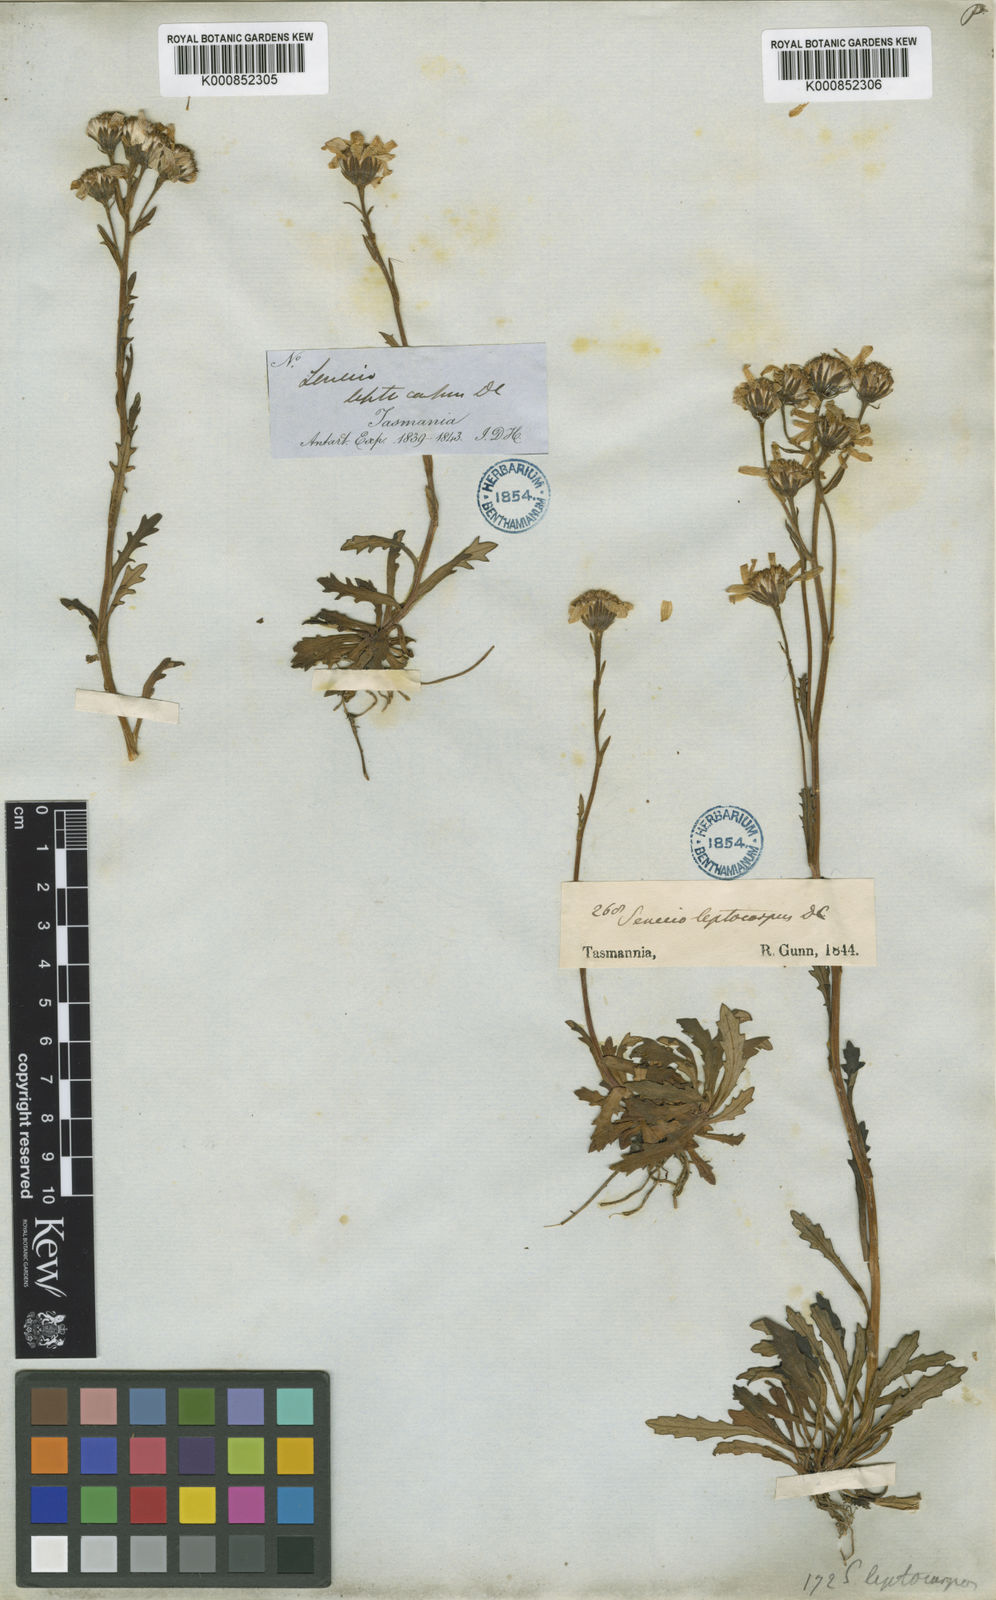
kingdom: Plantae
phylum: Tracheophyta
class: Magnoliopsida
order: Asterales
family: Asteraceae
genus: Scapisenecio
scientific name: Scapisenecio leptocarpus
